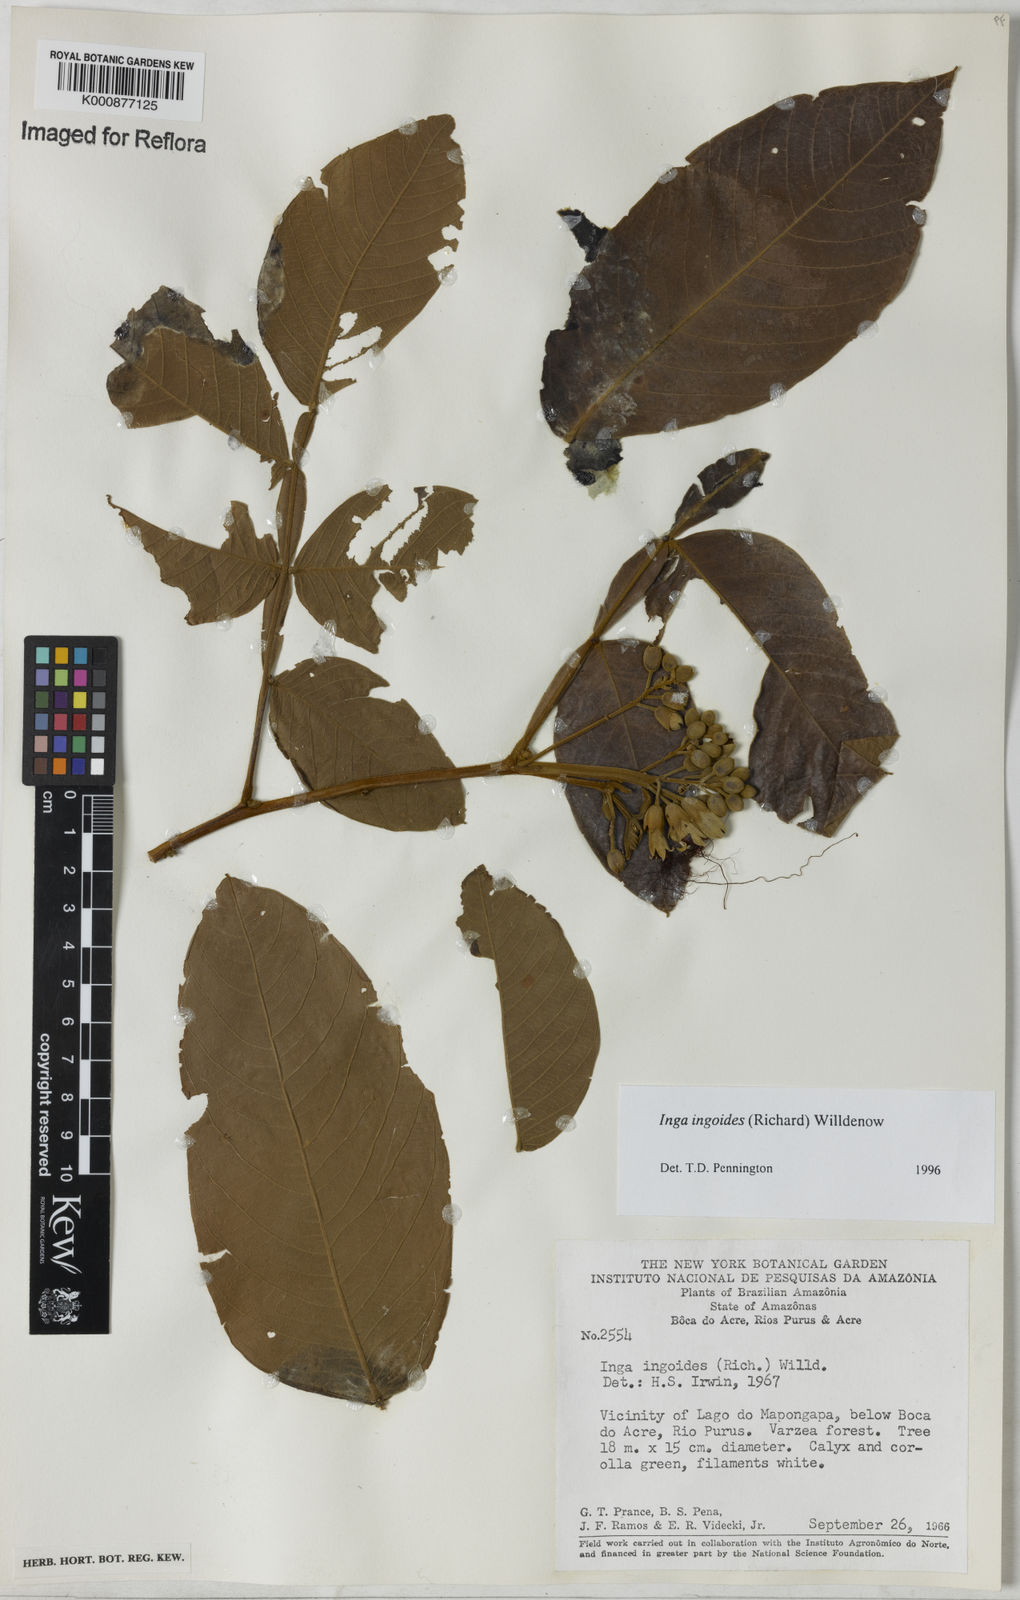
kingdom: Plantae
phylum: Tracheophyta
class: Magnoliopsida
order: Fabales
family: Fabaceae
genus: Inga
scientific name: Inga ingoides
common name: Spanish ash
